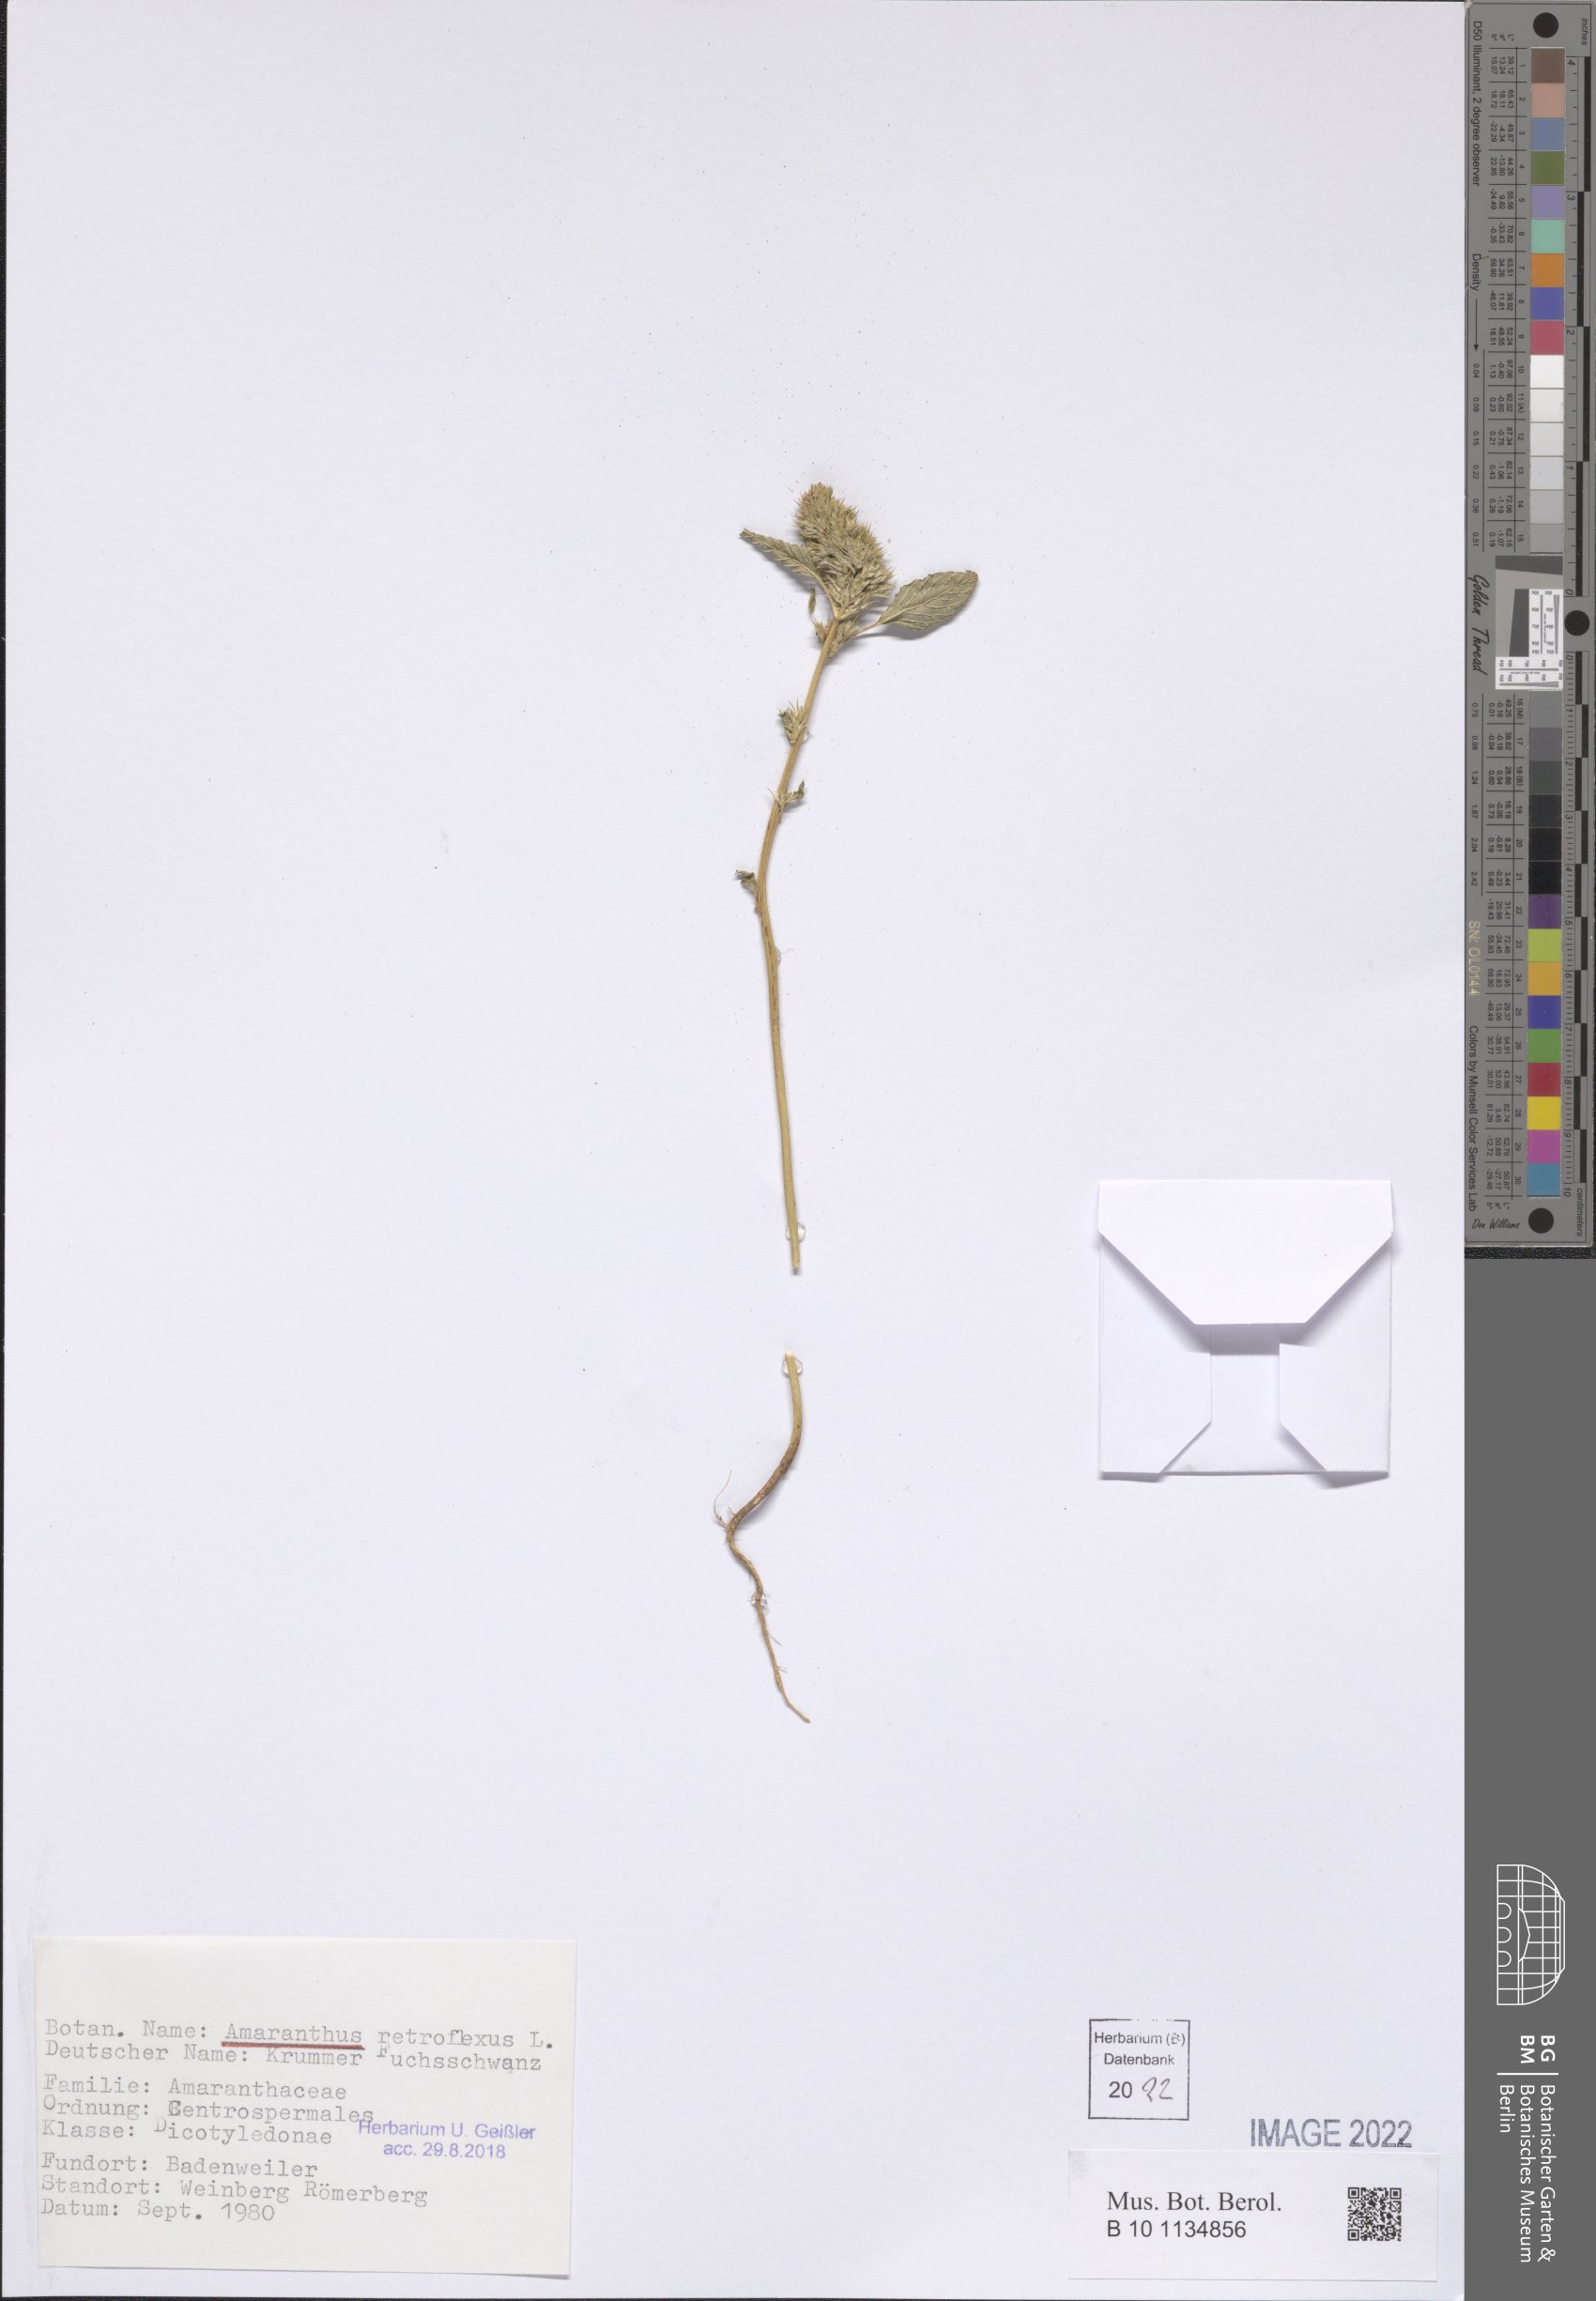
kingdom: Plantae
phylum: Tracheophyta
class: Magnoliopsida
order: Caryophyllales
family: Amaranthaceae
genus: Amaranthus
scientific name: Amaranthus retroflexus
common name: Redroot amaranth
